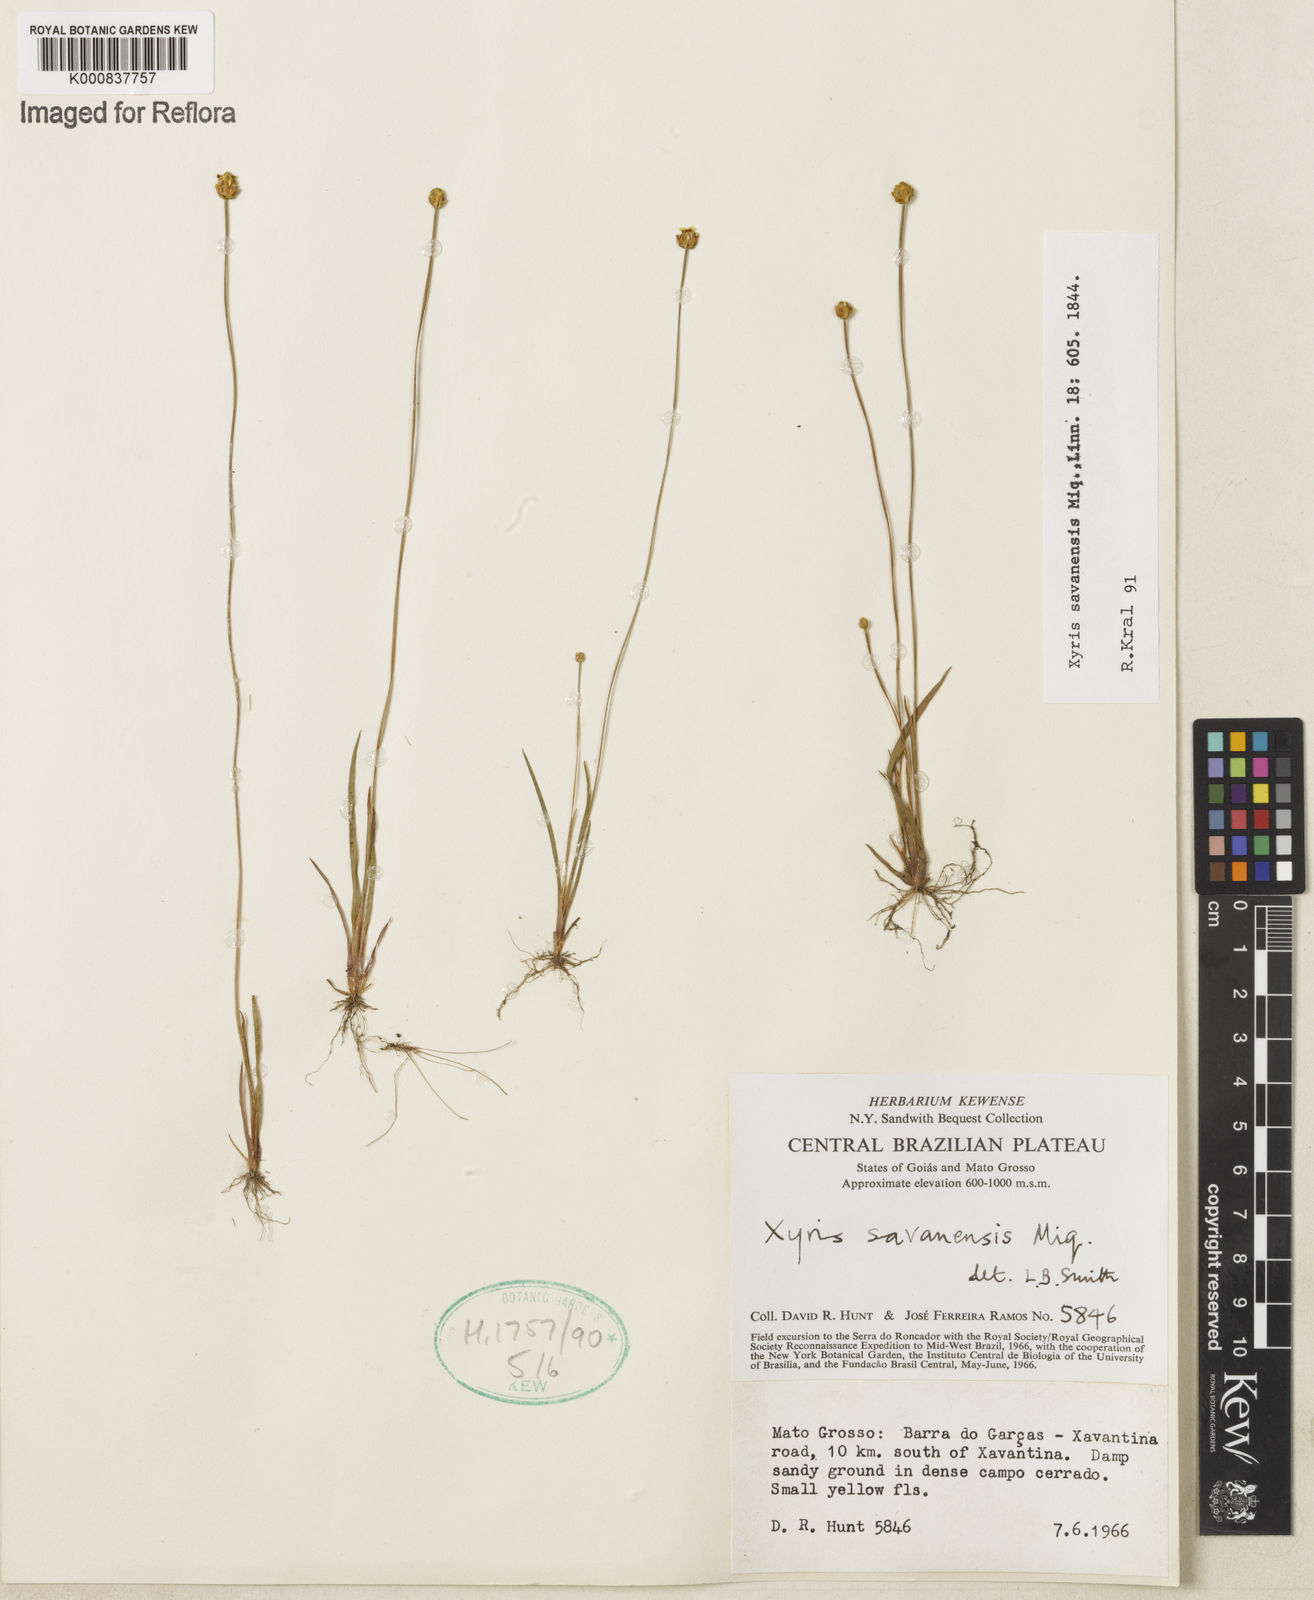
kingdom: Plantae
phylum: Tracheophyta
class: Liliopsida
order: Poales
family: Xyridaceae
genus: Xyris
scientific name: Xyris savanensis
